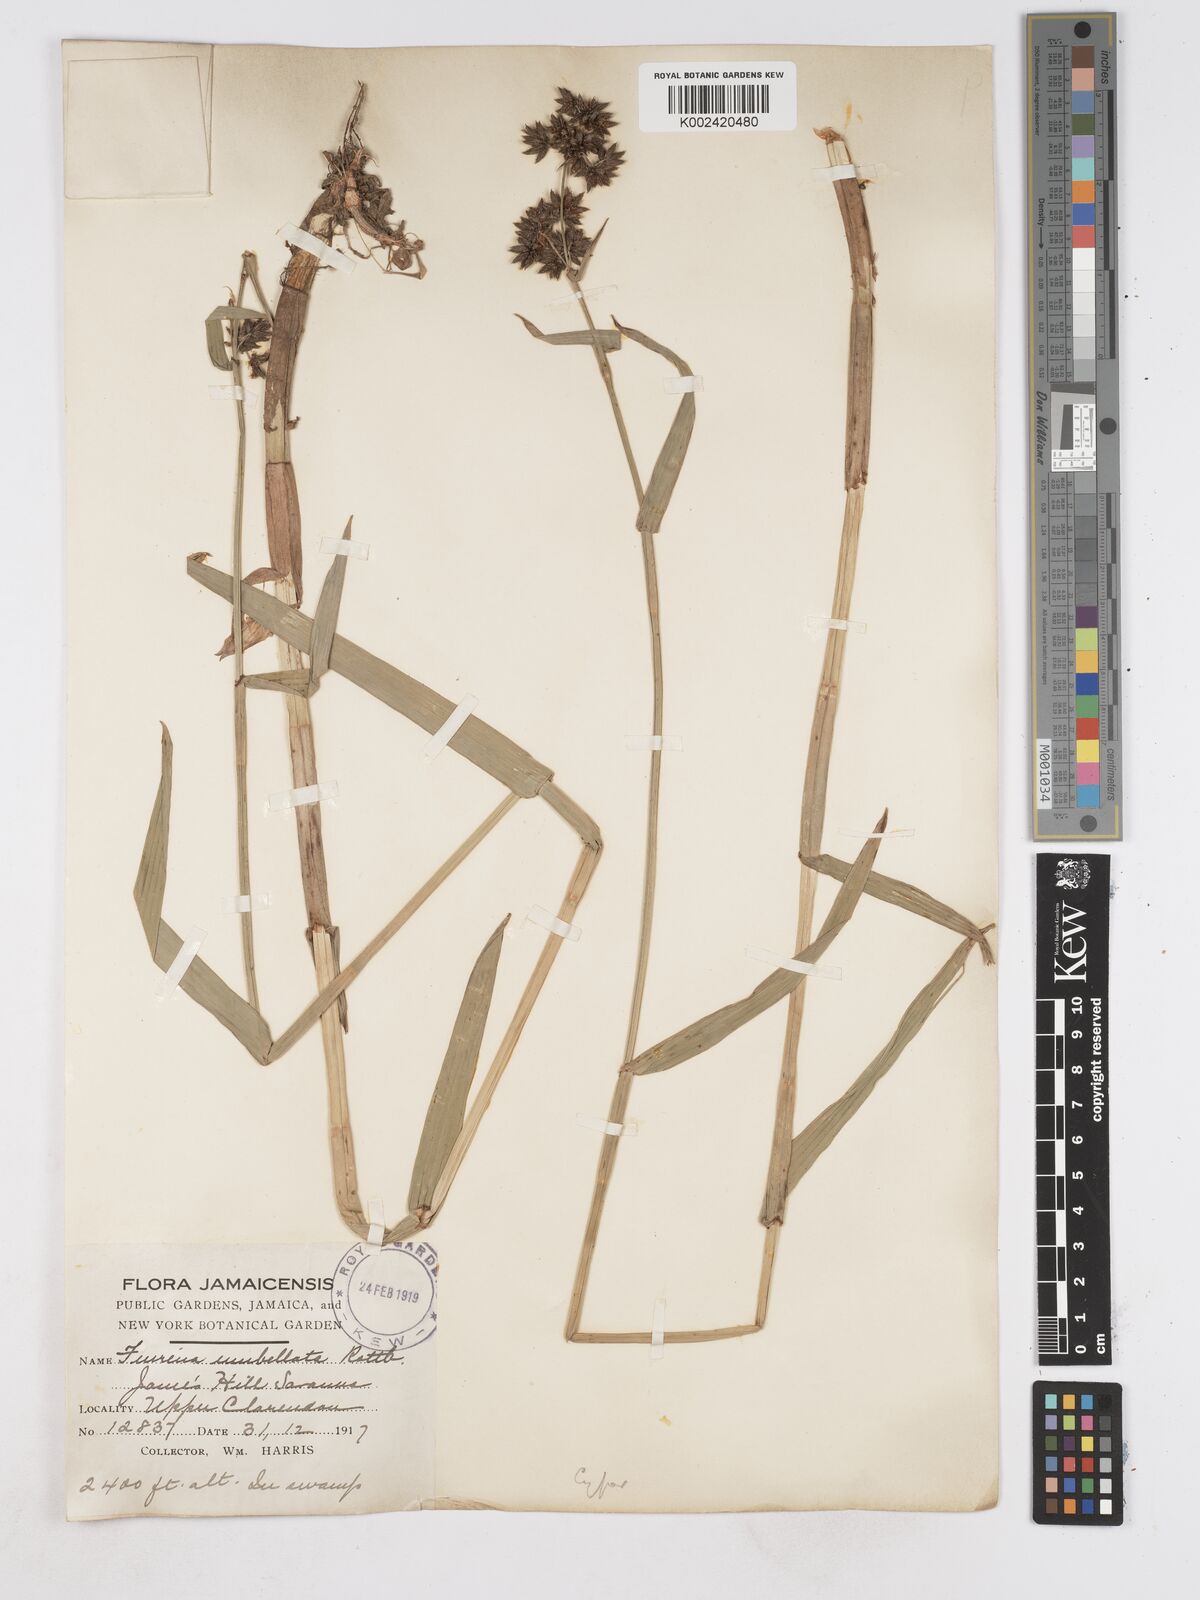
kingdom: Plantae
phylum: Tracheophyta
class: Liliopsida
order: Poales
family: Cyperaceae
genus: Fuirena
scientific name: Fuirena umbellata
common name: Yefen
